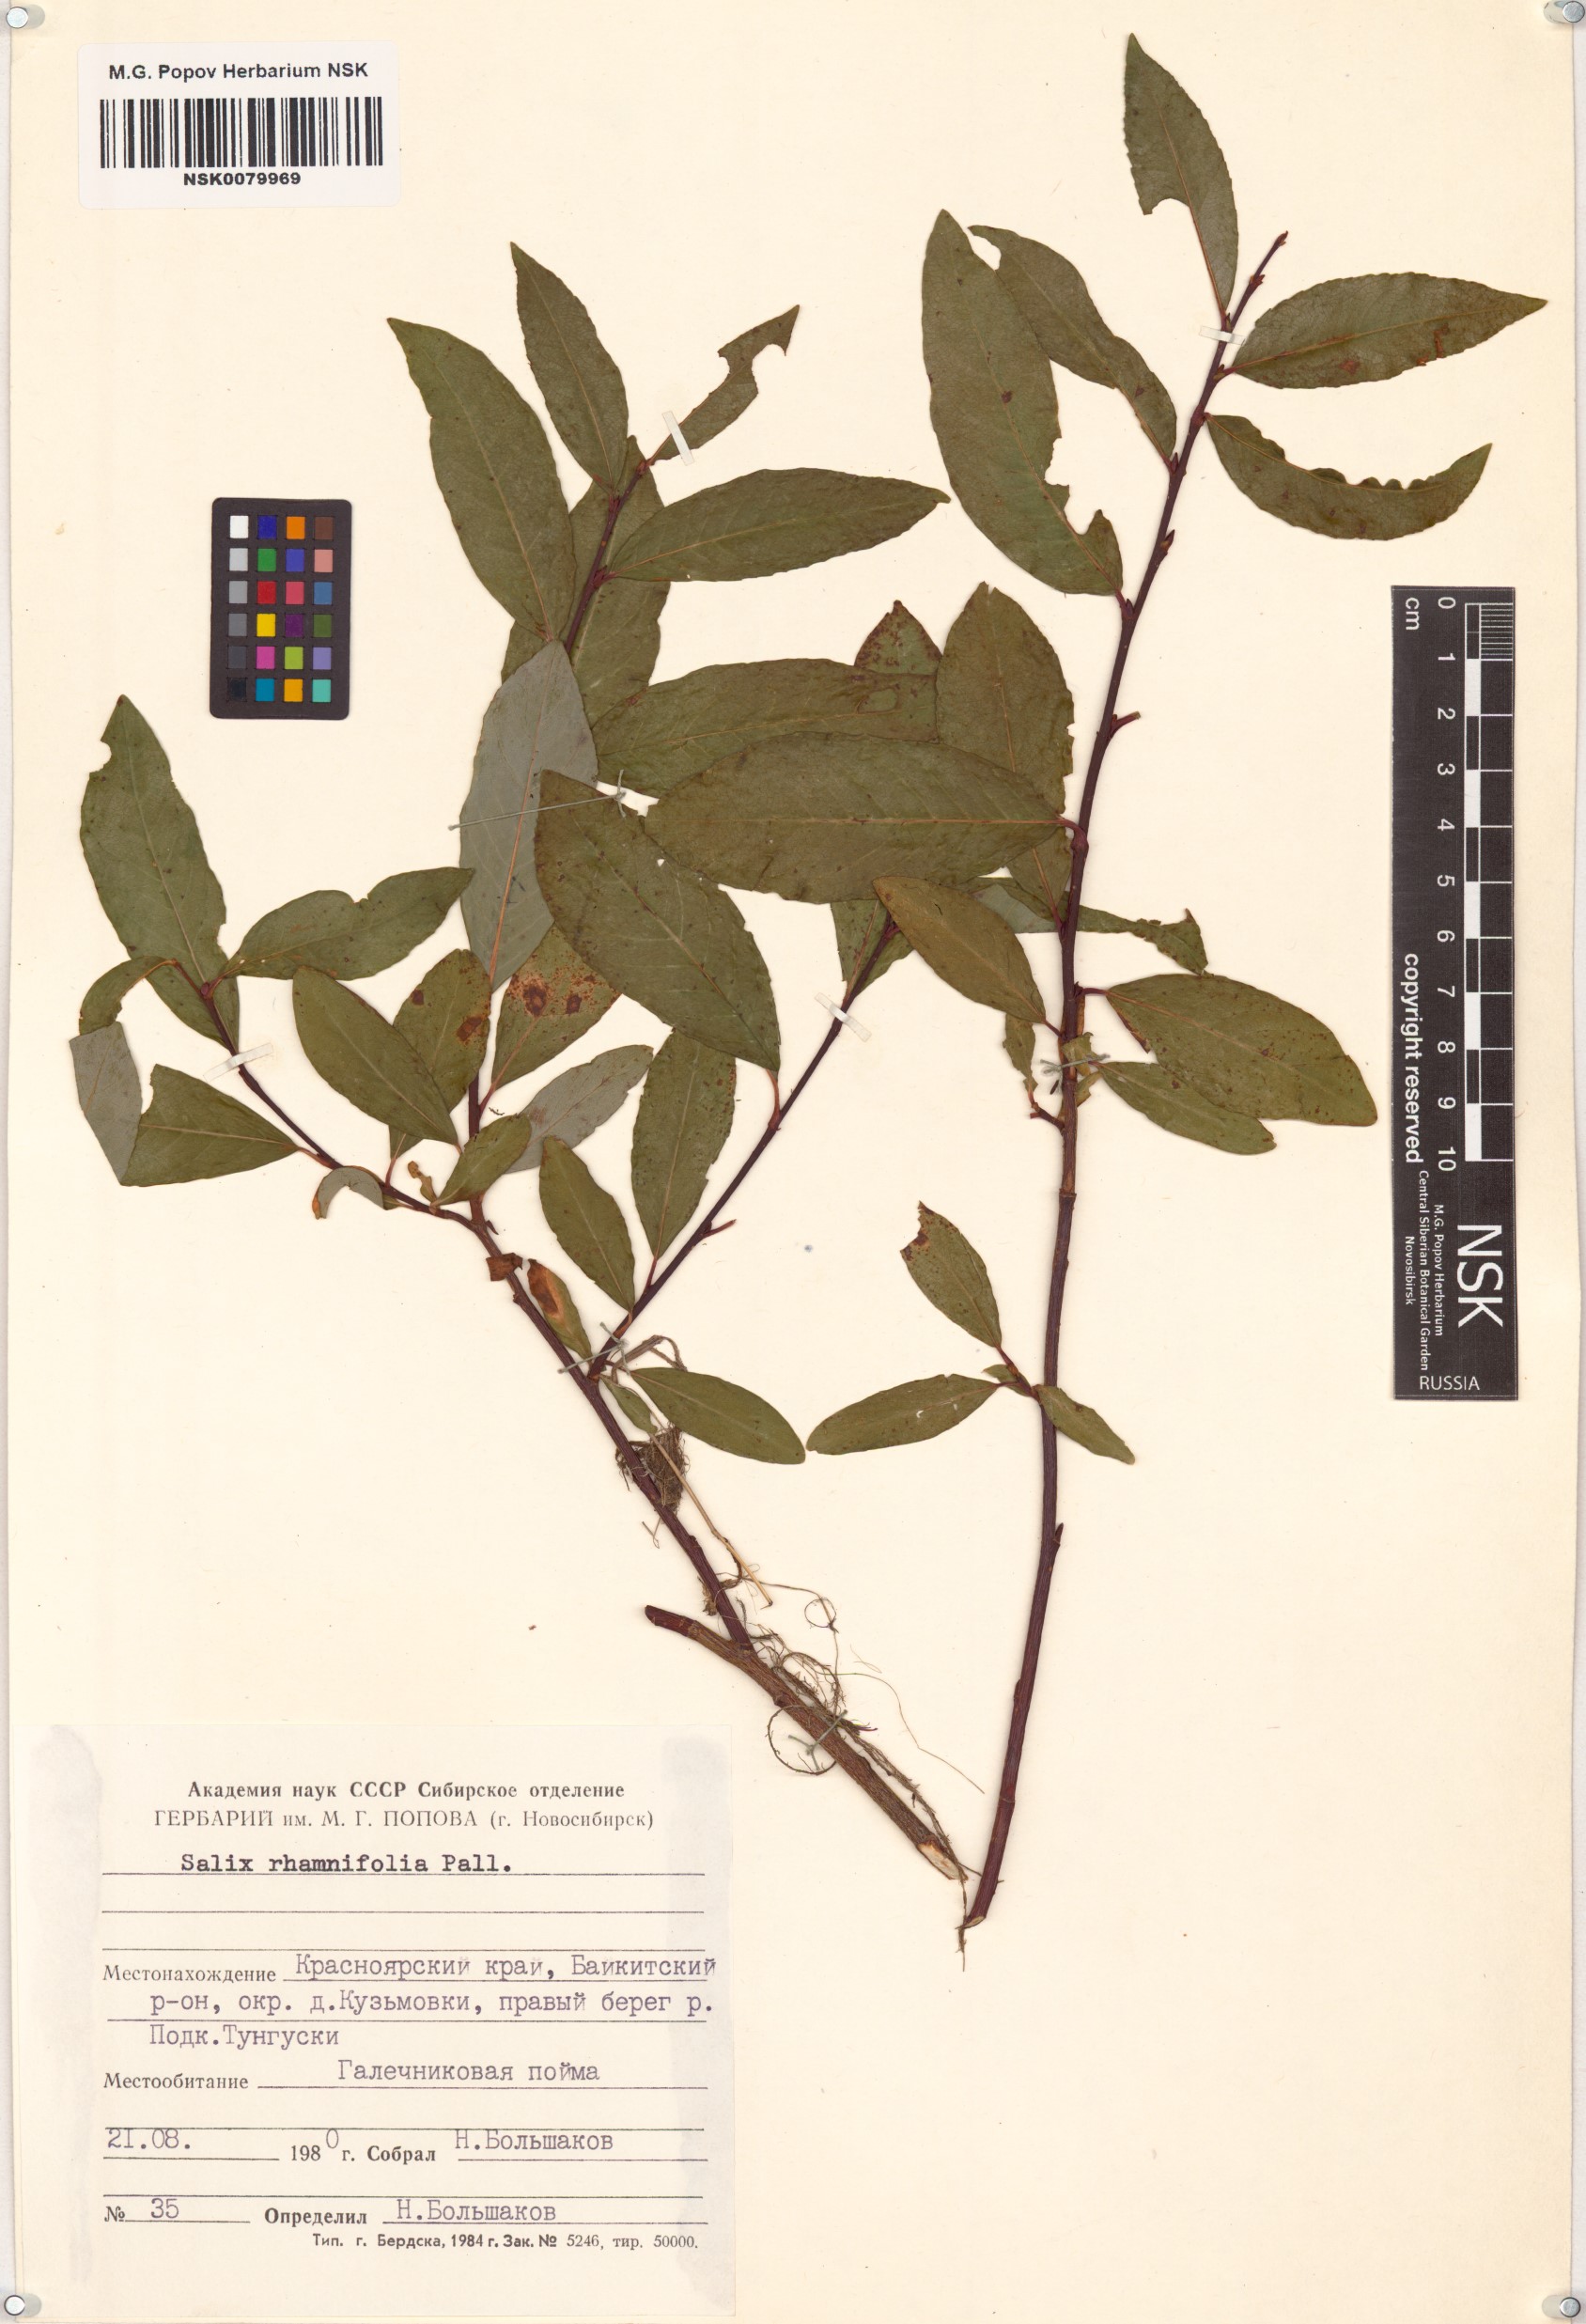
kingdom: Plantae
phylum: Tracheophyta
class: Magnoliopsida
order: Malpighiales
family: Salicaceae
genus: Salix
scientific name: Salix rhamnifolia
